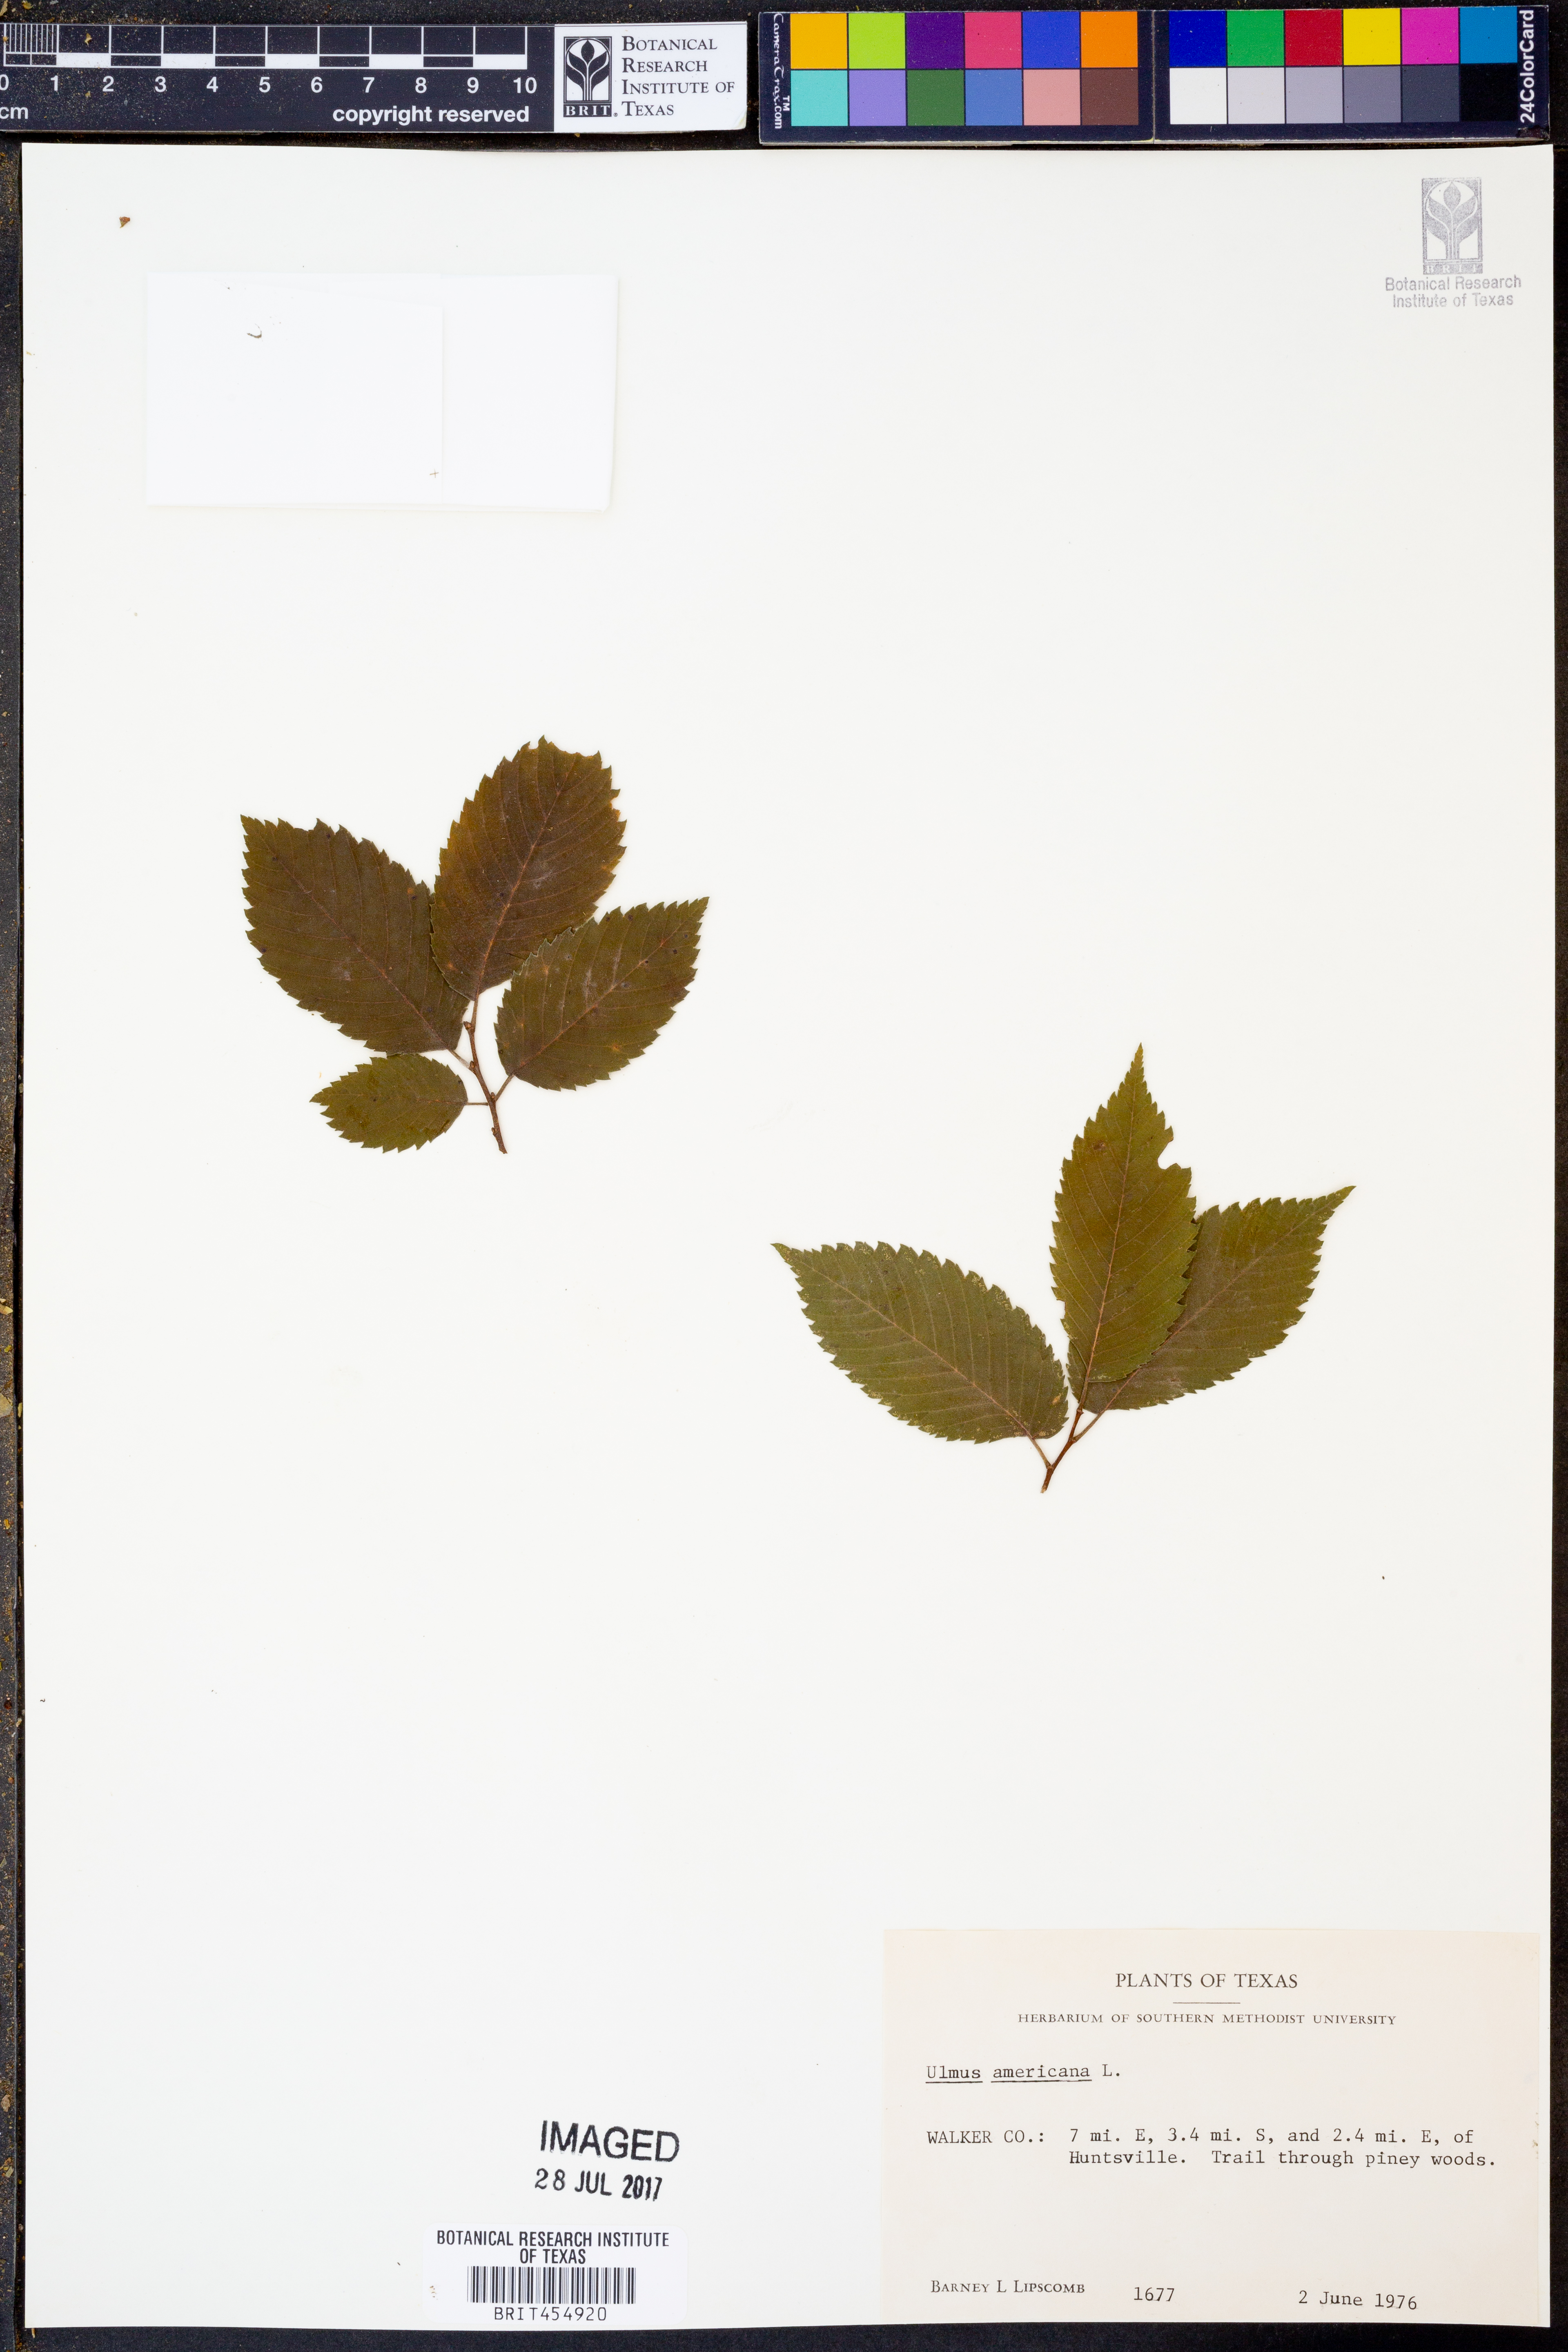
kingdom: Plantae
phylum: Tracheophyta
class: Magnoliopsida
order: Rosales
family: Ulmaceae
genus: Ulmus
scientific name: Ulmus americana
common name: American elm
